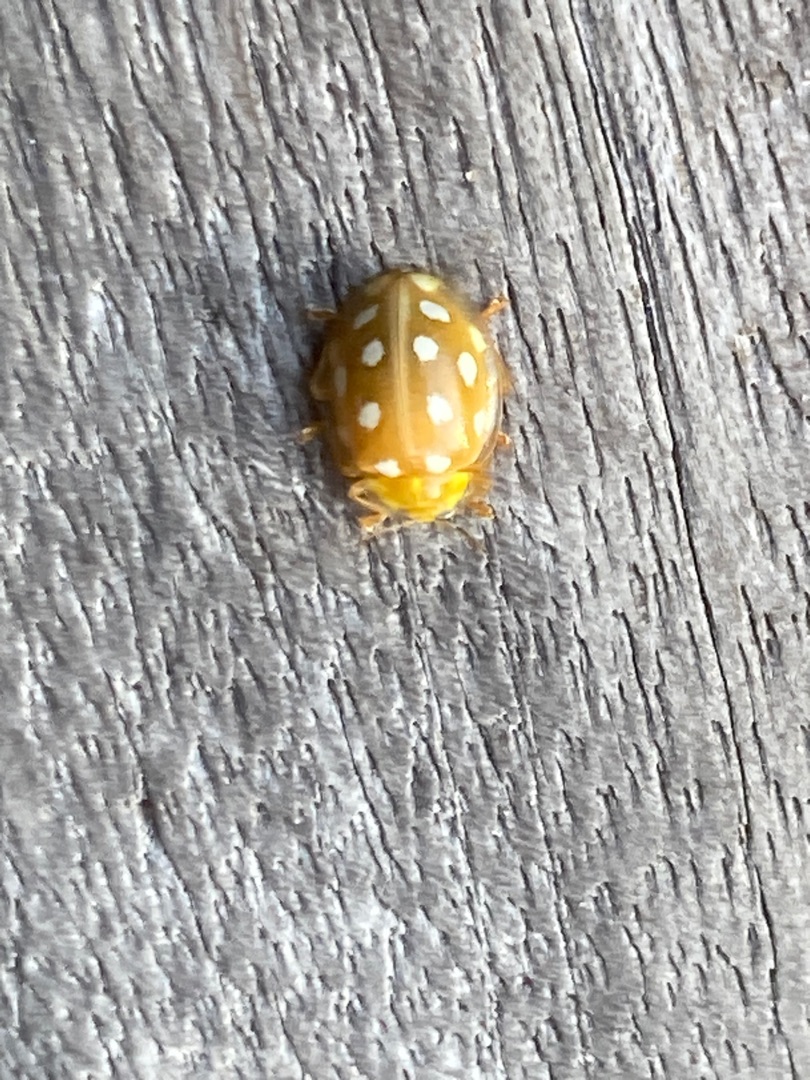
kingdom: Animalia
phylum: Arthropoda
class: Insecta
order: Coleoptera
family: Coccinellidae
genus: Halyzia
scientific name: Halyzia sedecimguttata
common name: Sekstenplettet mariehøne
